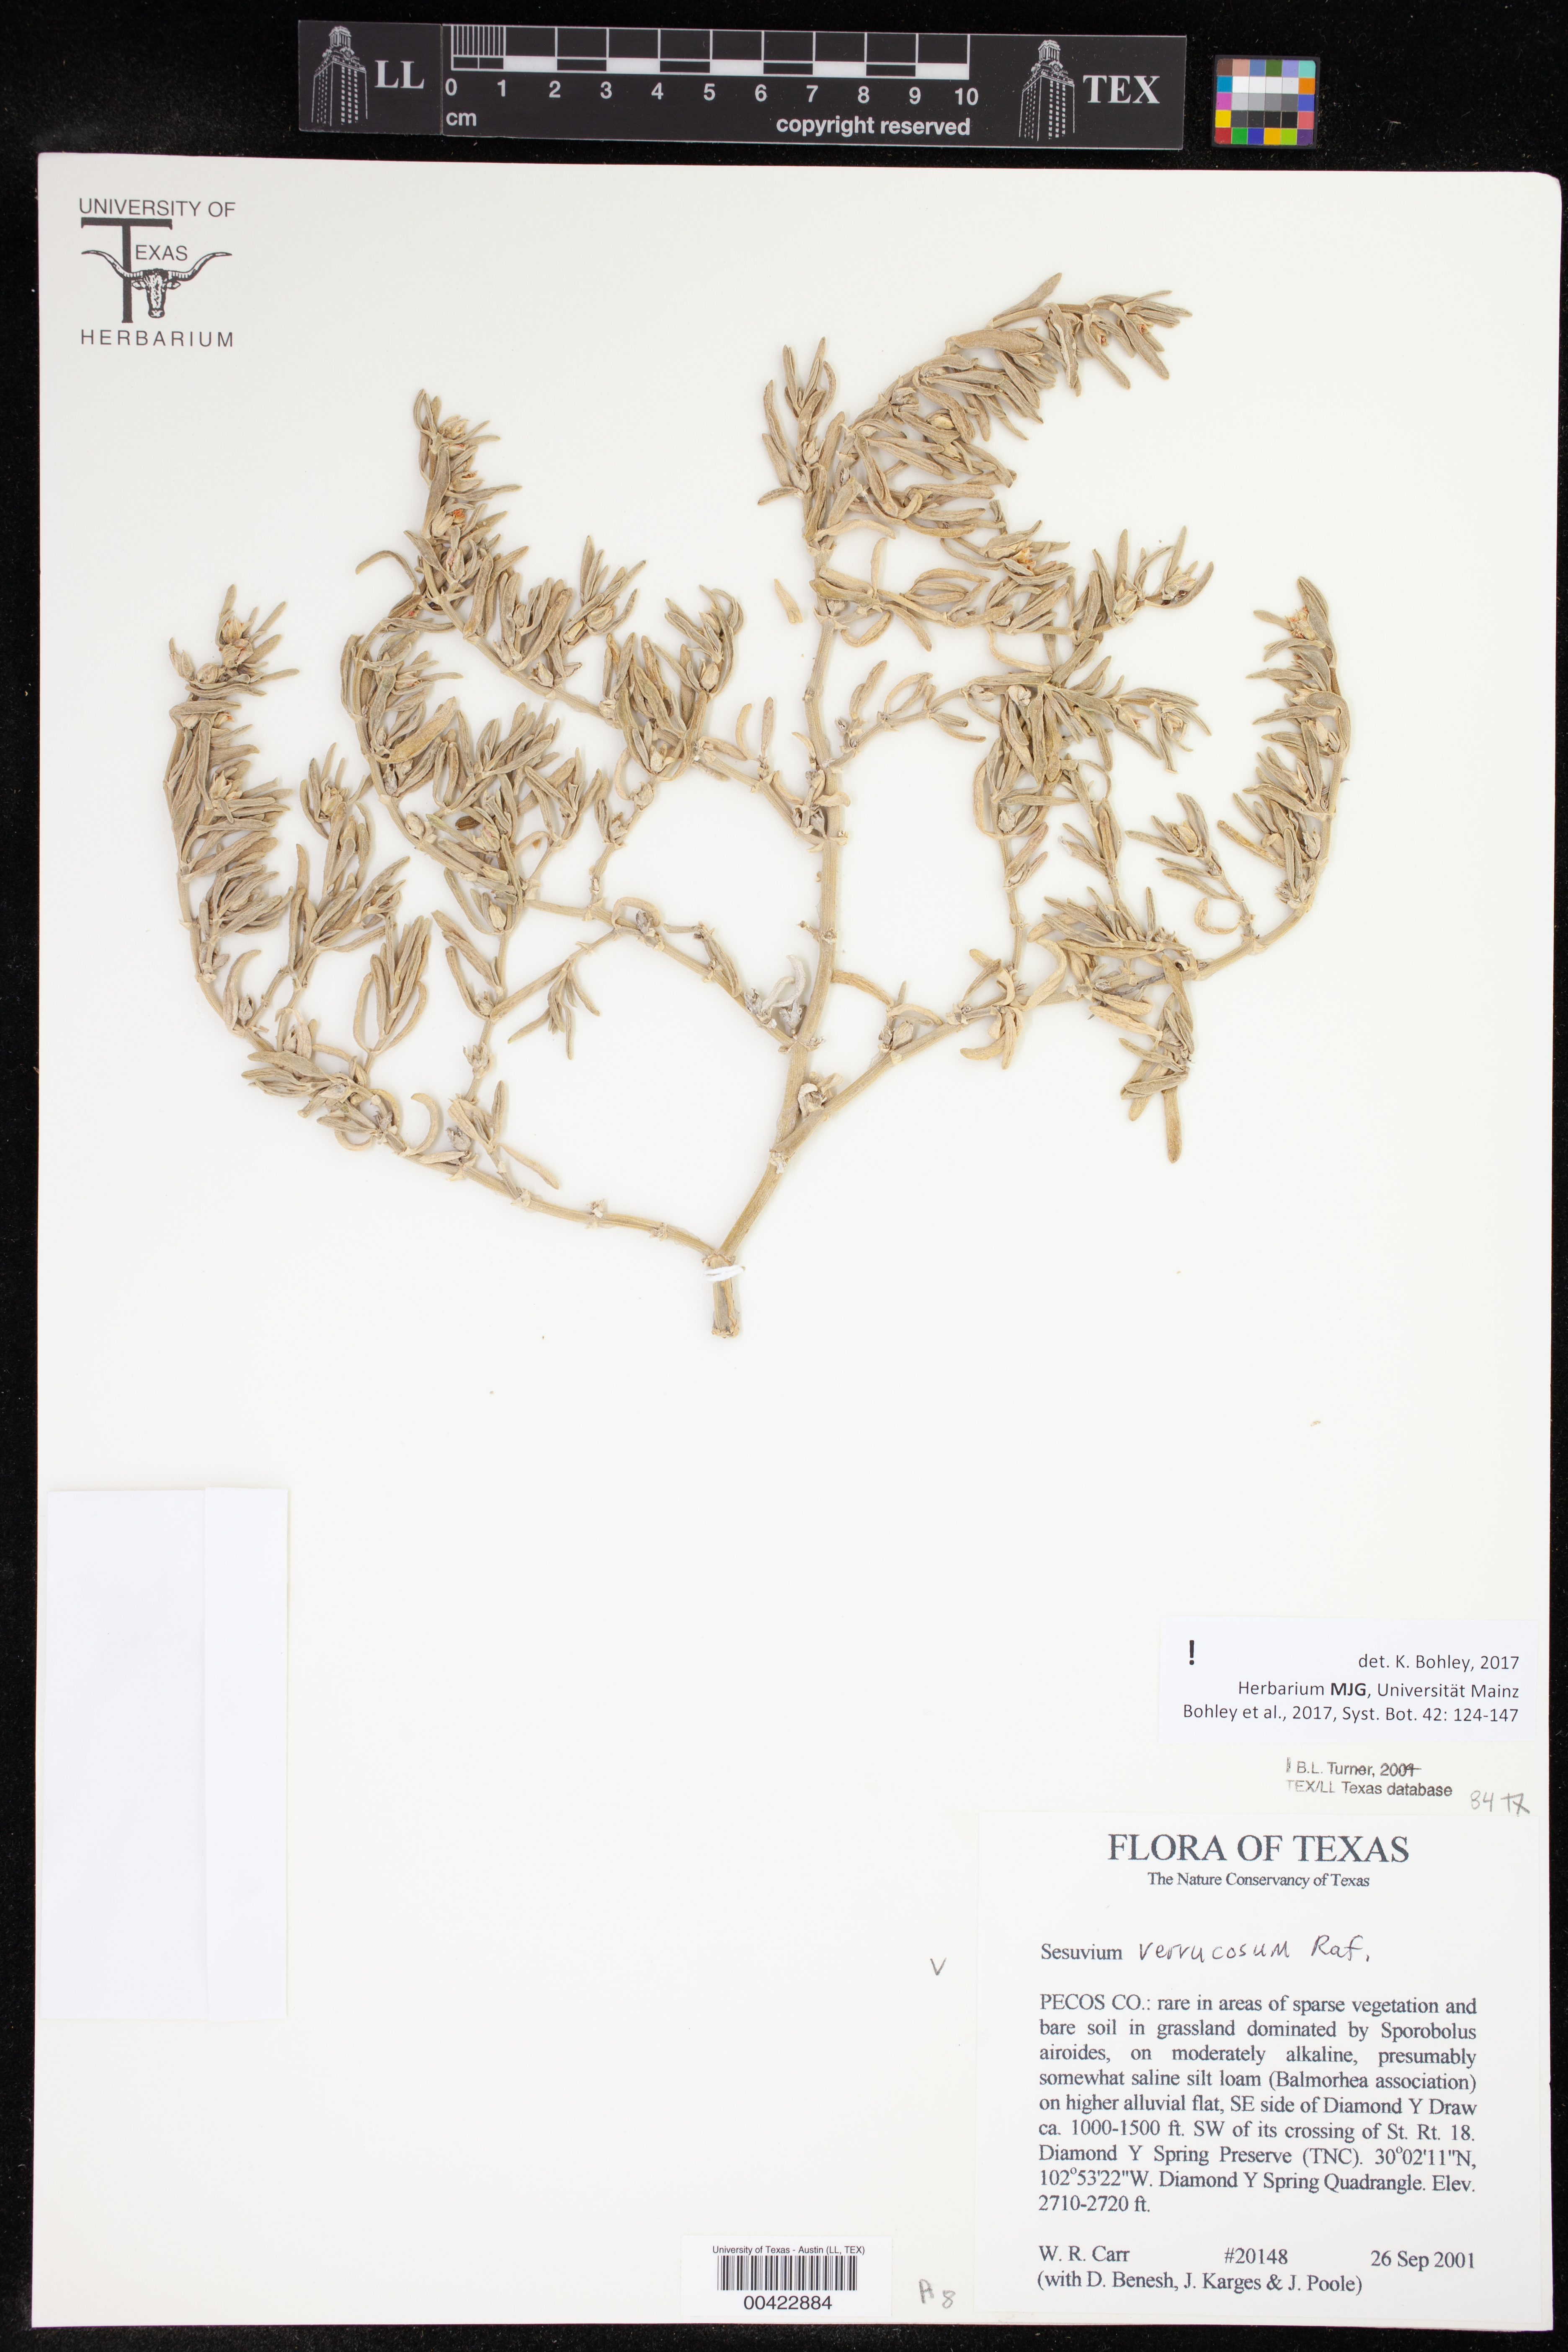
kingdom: Plantae
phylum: Tracheophyta
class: Magnoliopsida
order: Caryophyllales
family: Aizoaceae
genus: Sesuvium
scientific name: Sesuvium revolutifolium
